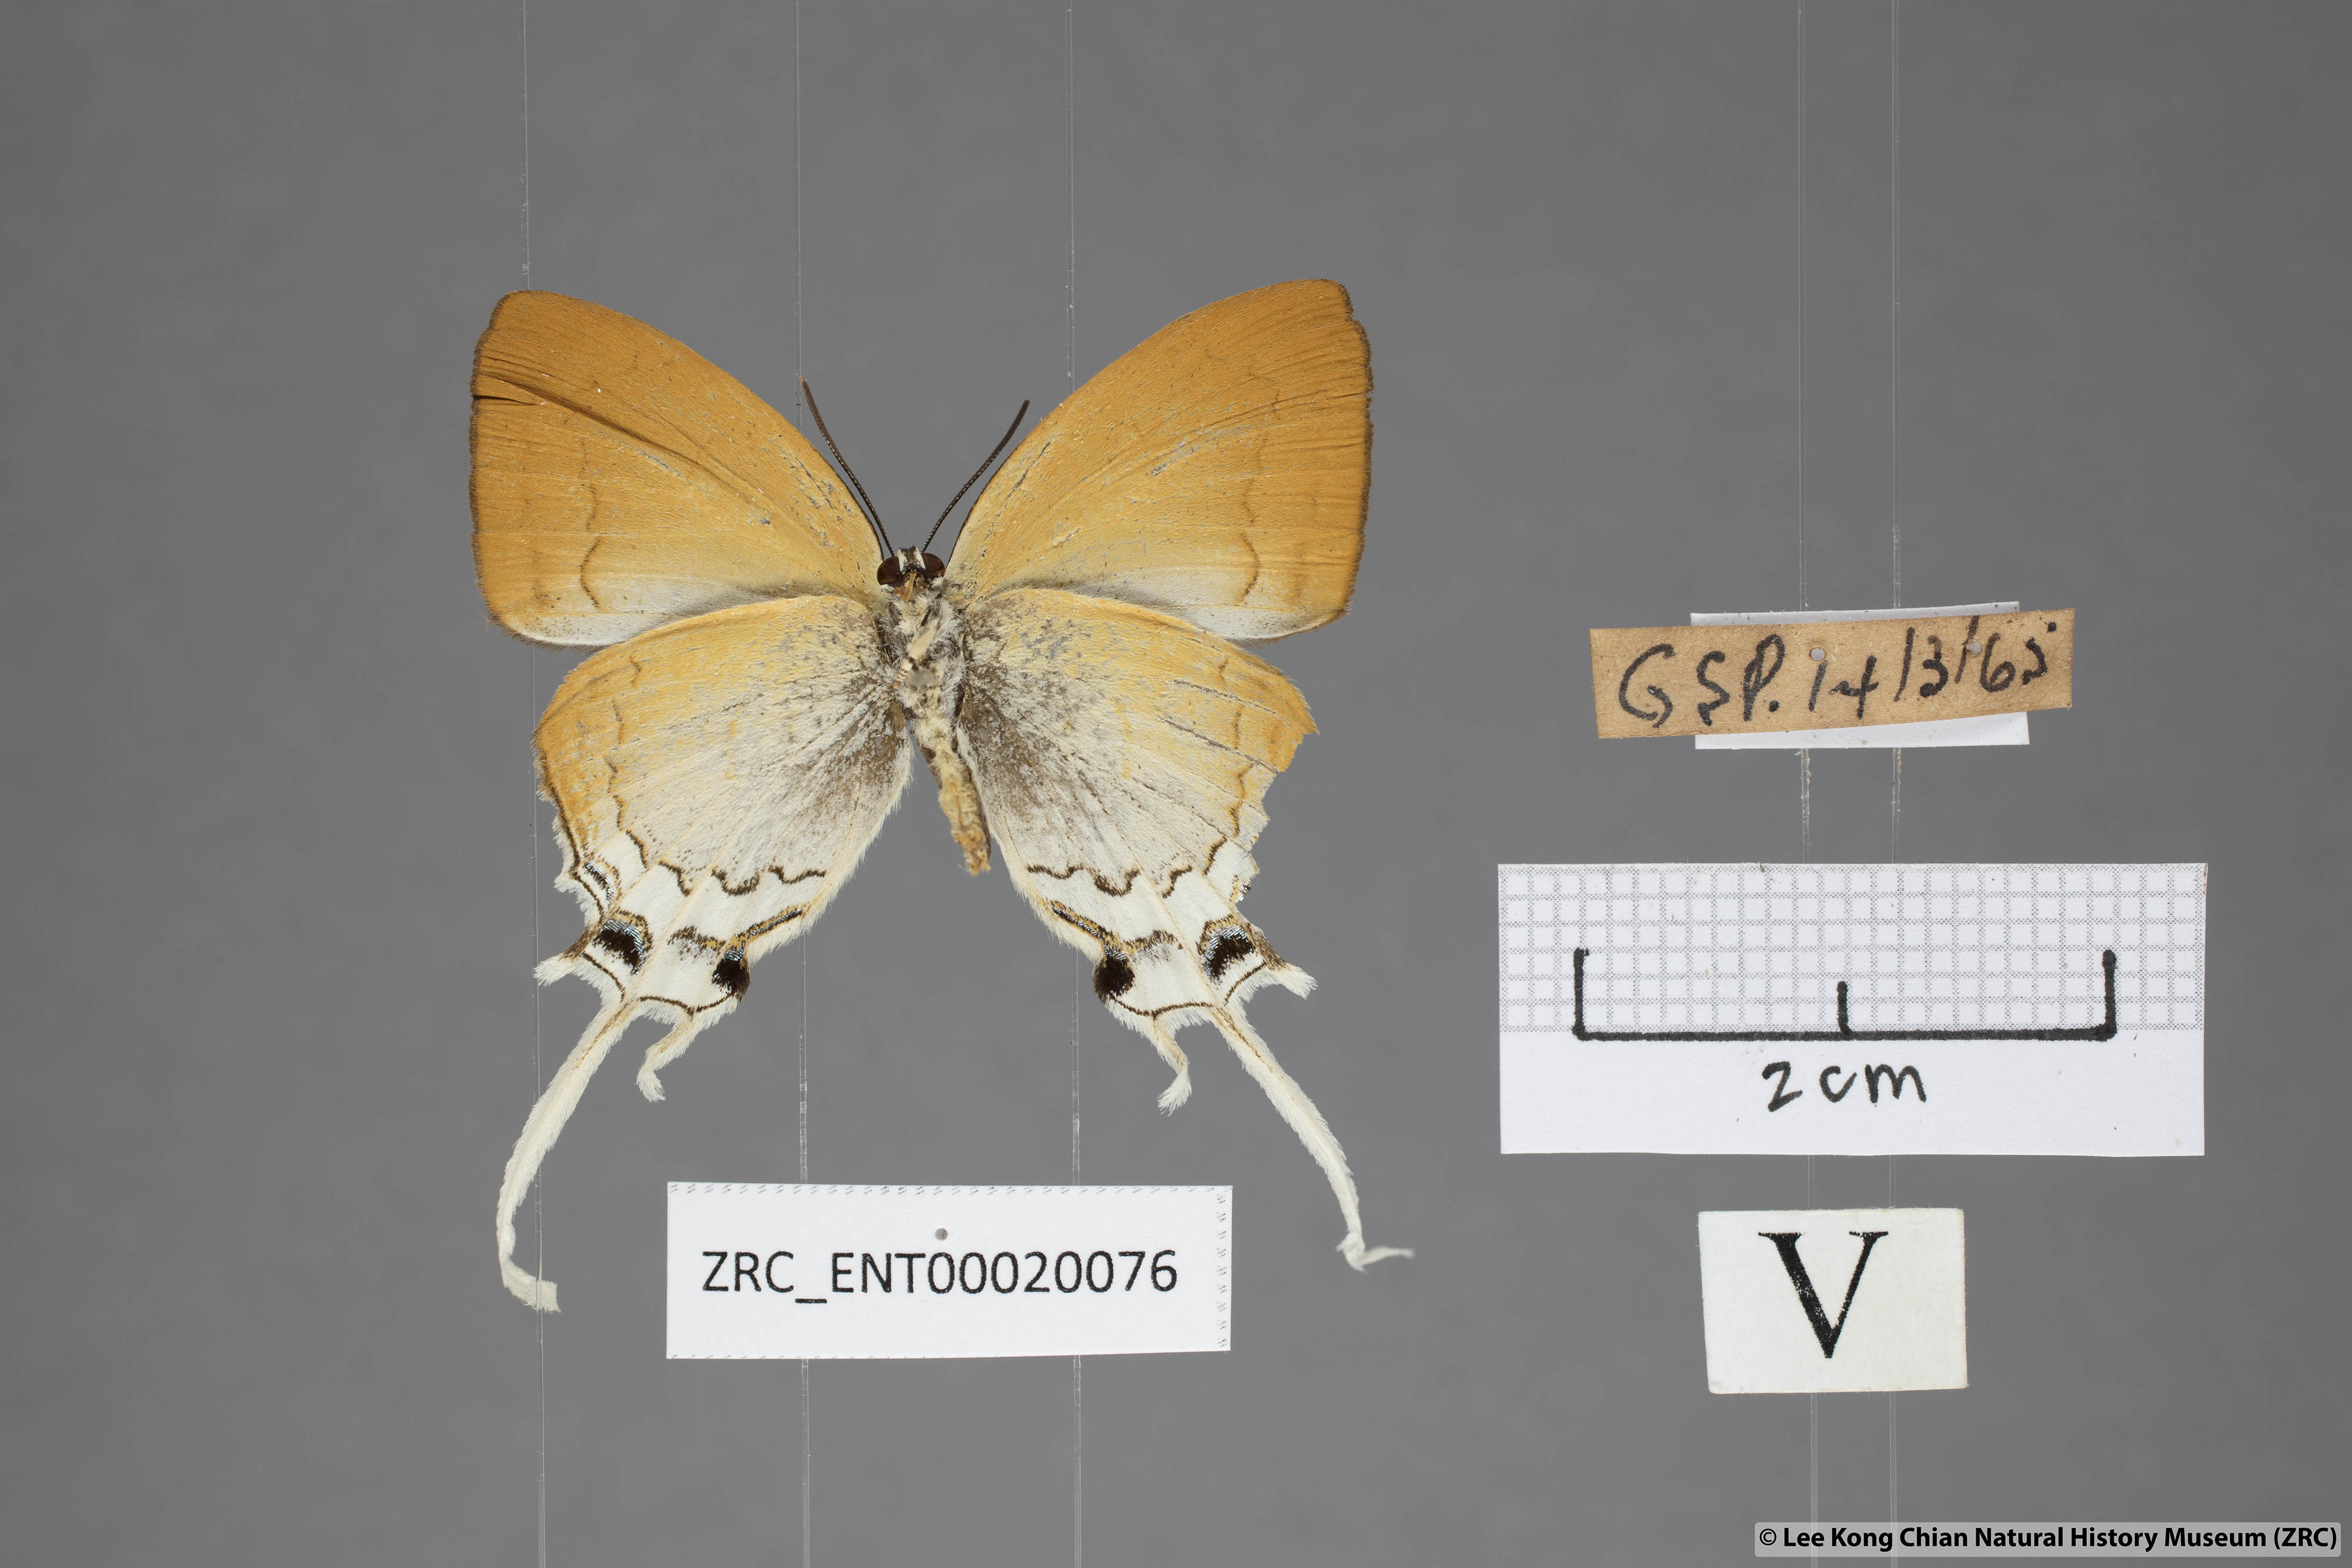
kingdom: Animalia
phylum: Arthropoda
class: Insecta
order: Lepidoptera
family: Lycaenidae
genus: Cheritra
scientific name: Cheritra freja
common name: Common imperial
